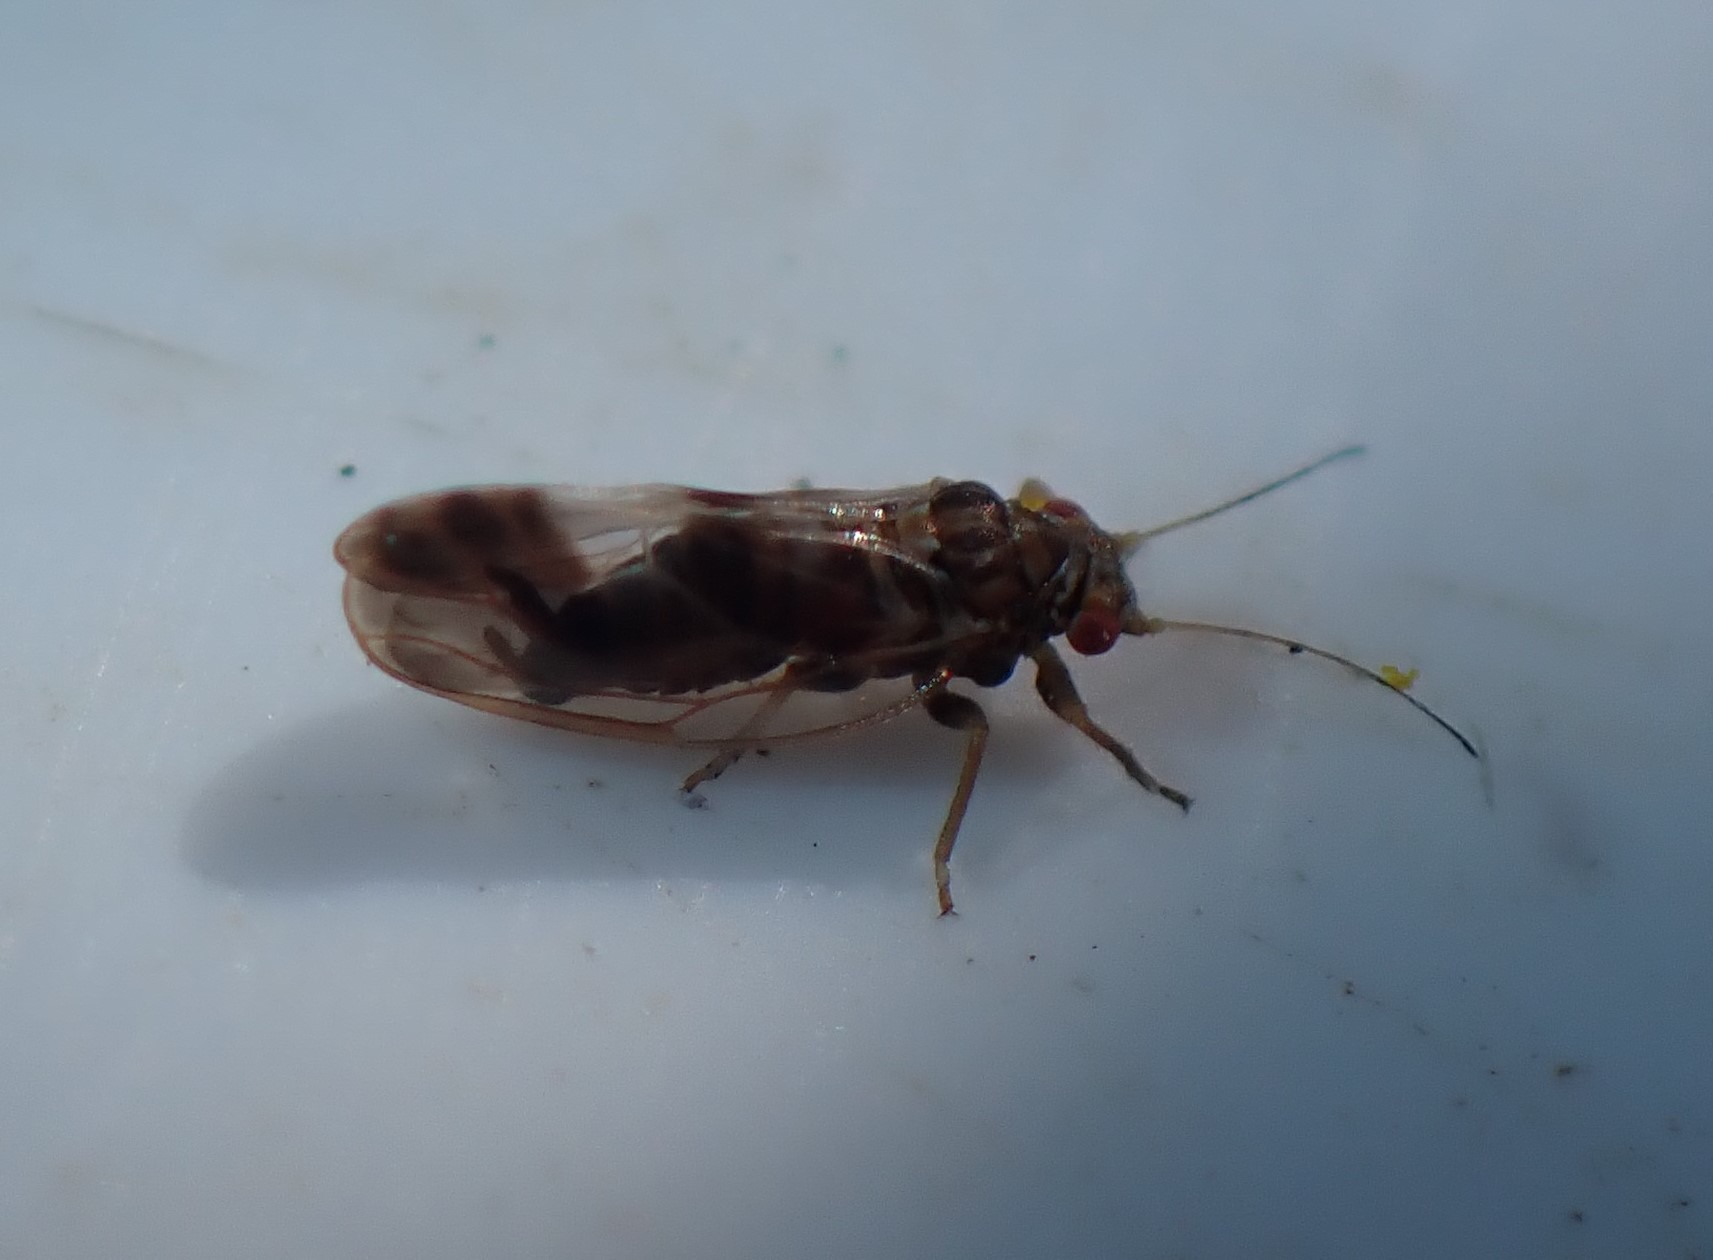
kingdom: Animalia
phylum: Arthropoda
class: Insecta
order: Hemiptera
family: Psyllidae
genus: Cacopsylla
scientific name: Cacopsylla fulguralis
